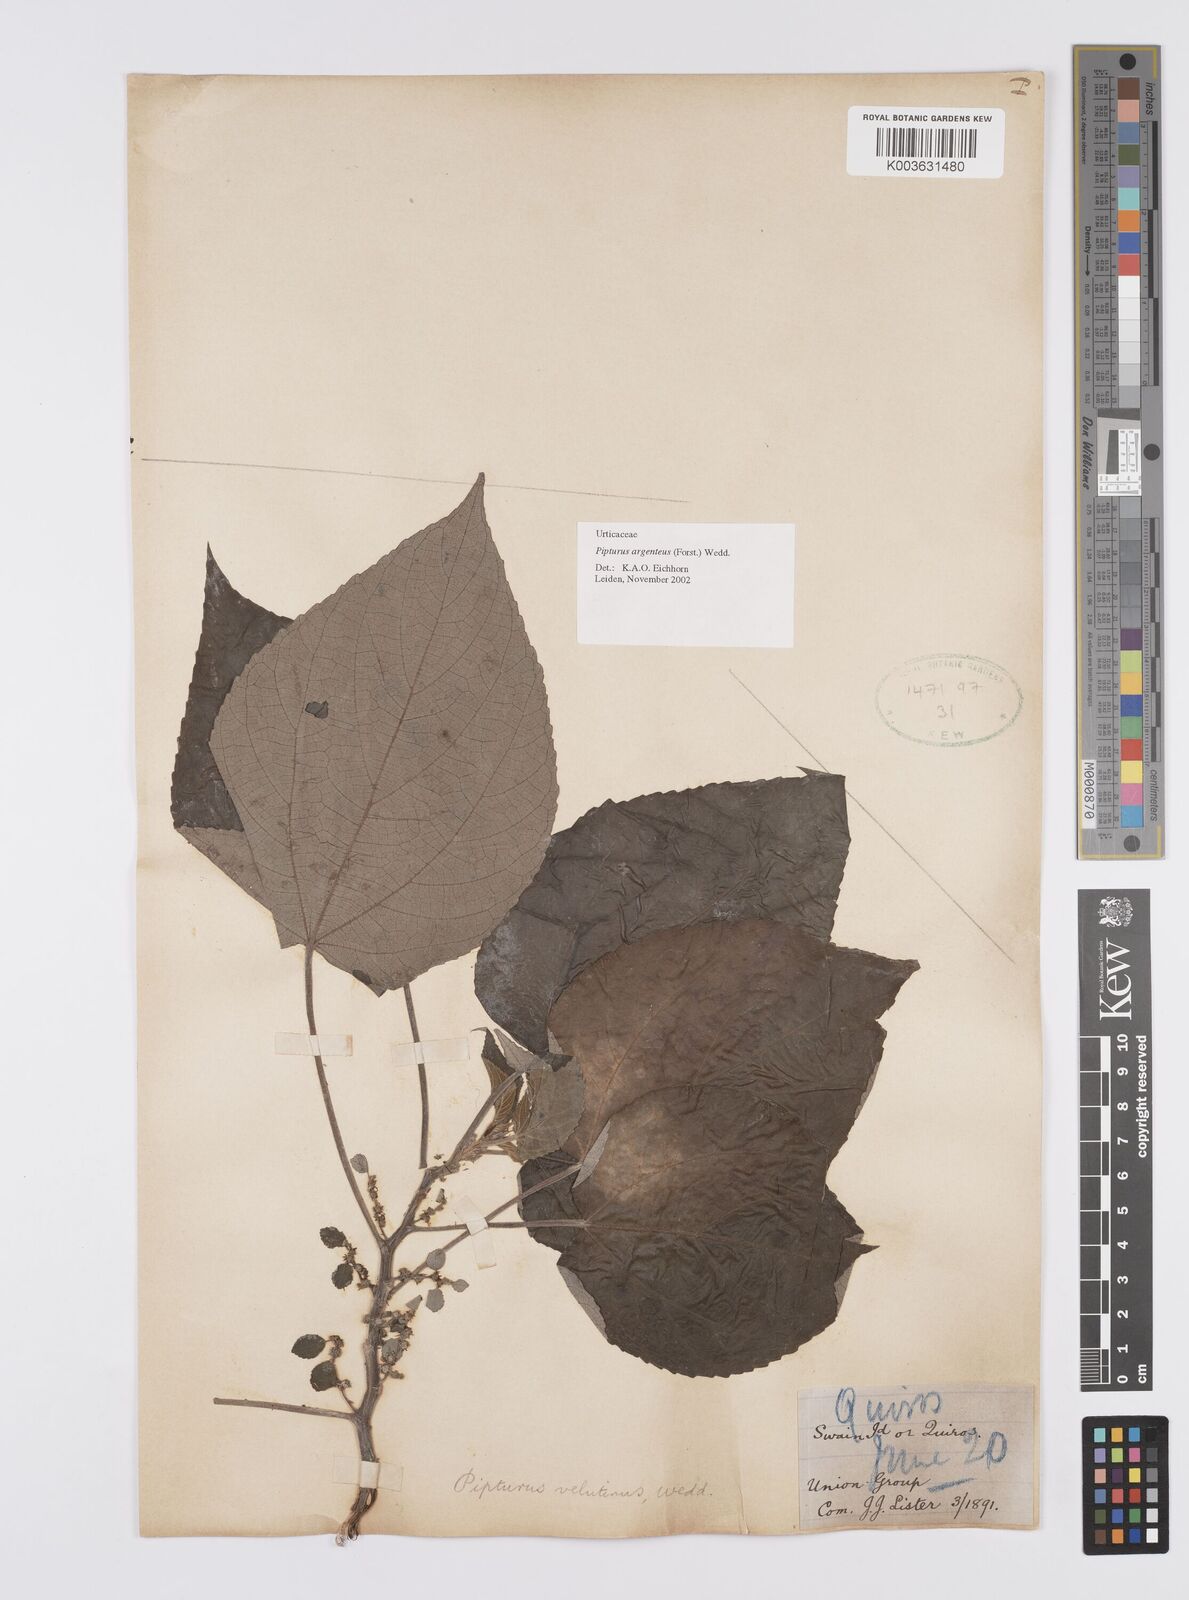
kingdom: Plantae
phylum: Tracheophyta
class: Magnoliopsida
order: Rosales
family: Urticaceae
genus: Pipturus
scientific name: Pipturus argenteus
